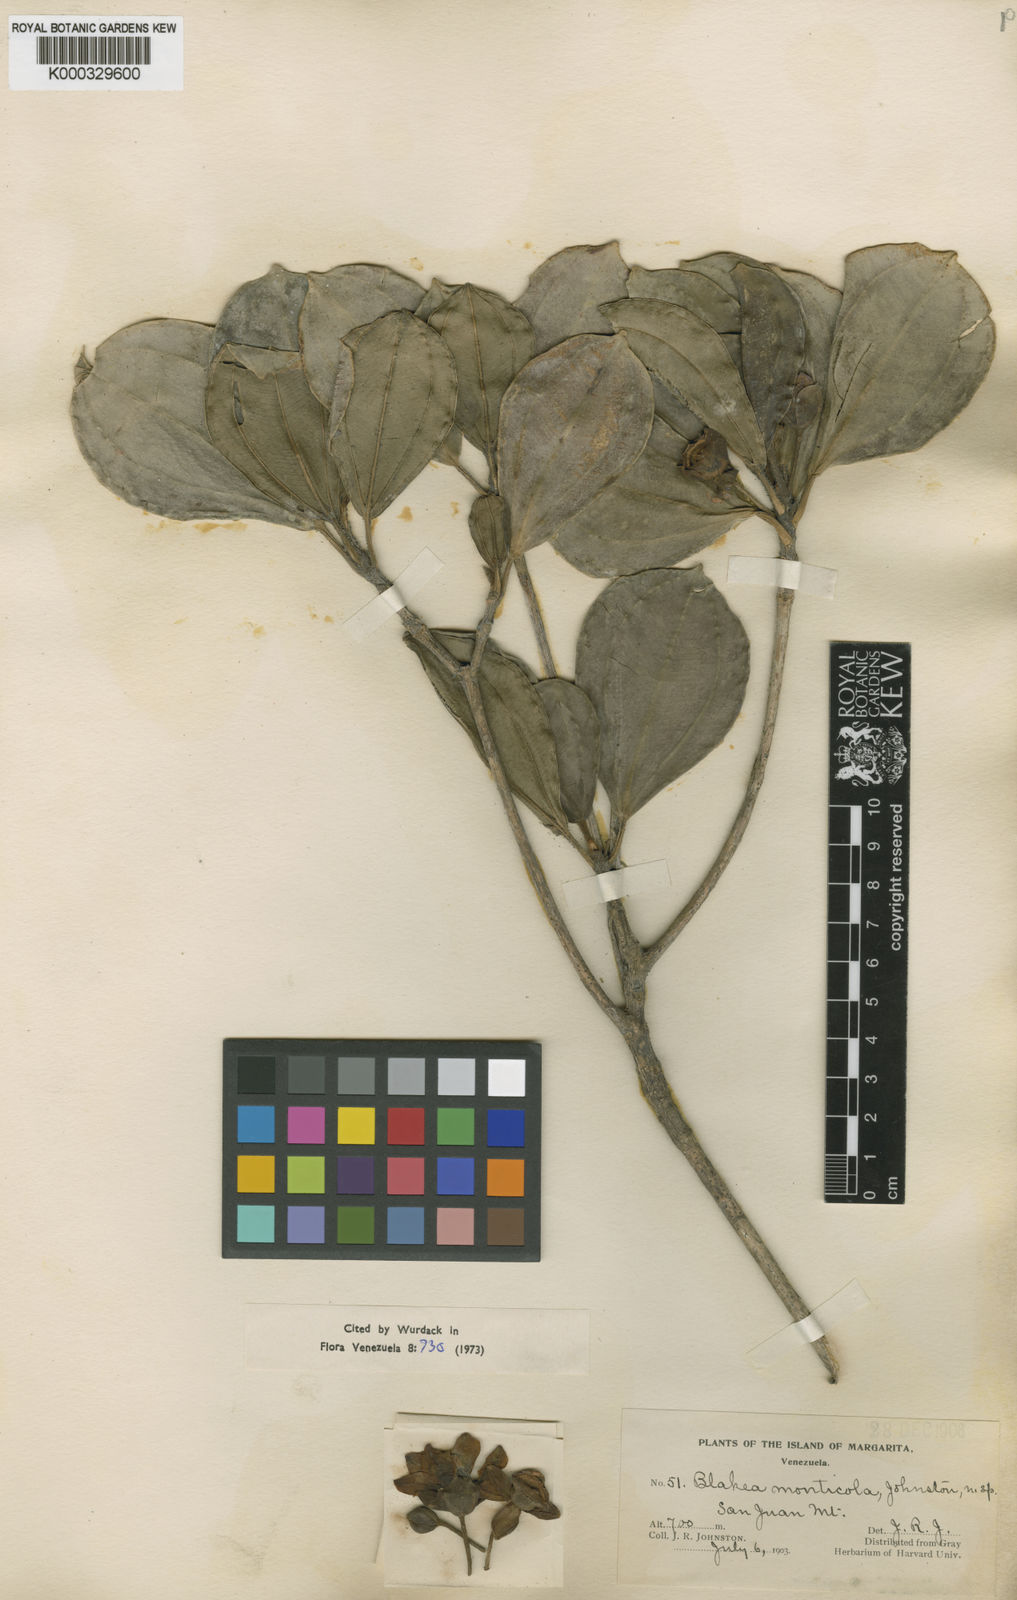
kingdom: Plantae
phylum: Tracheophyta
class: Magnoliopsida
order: Myrtales
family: Melastomataceae
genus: Blakea
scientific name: Blakea monticola
